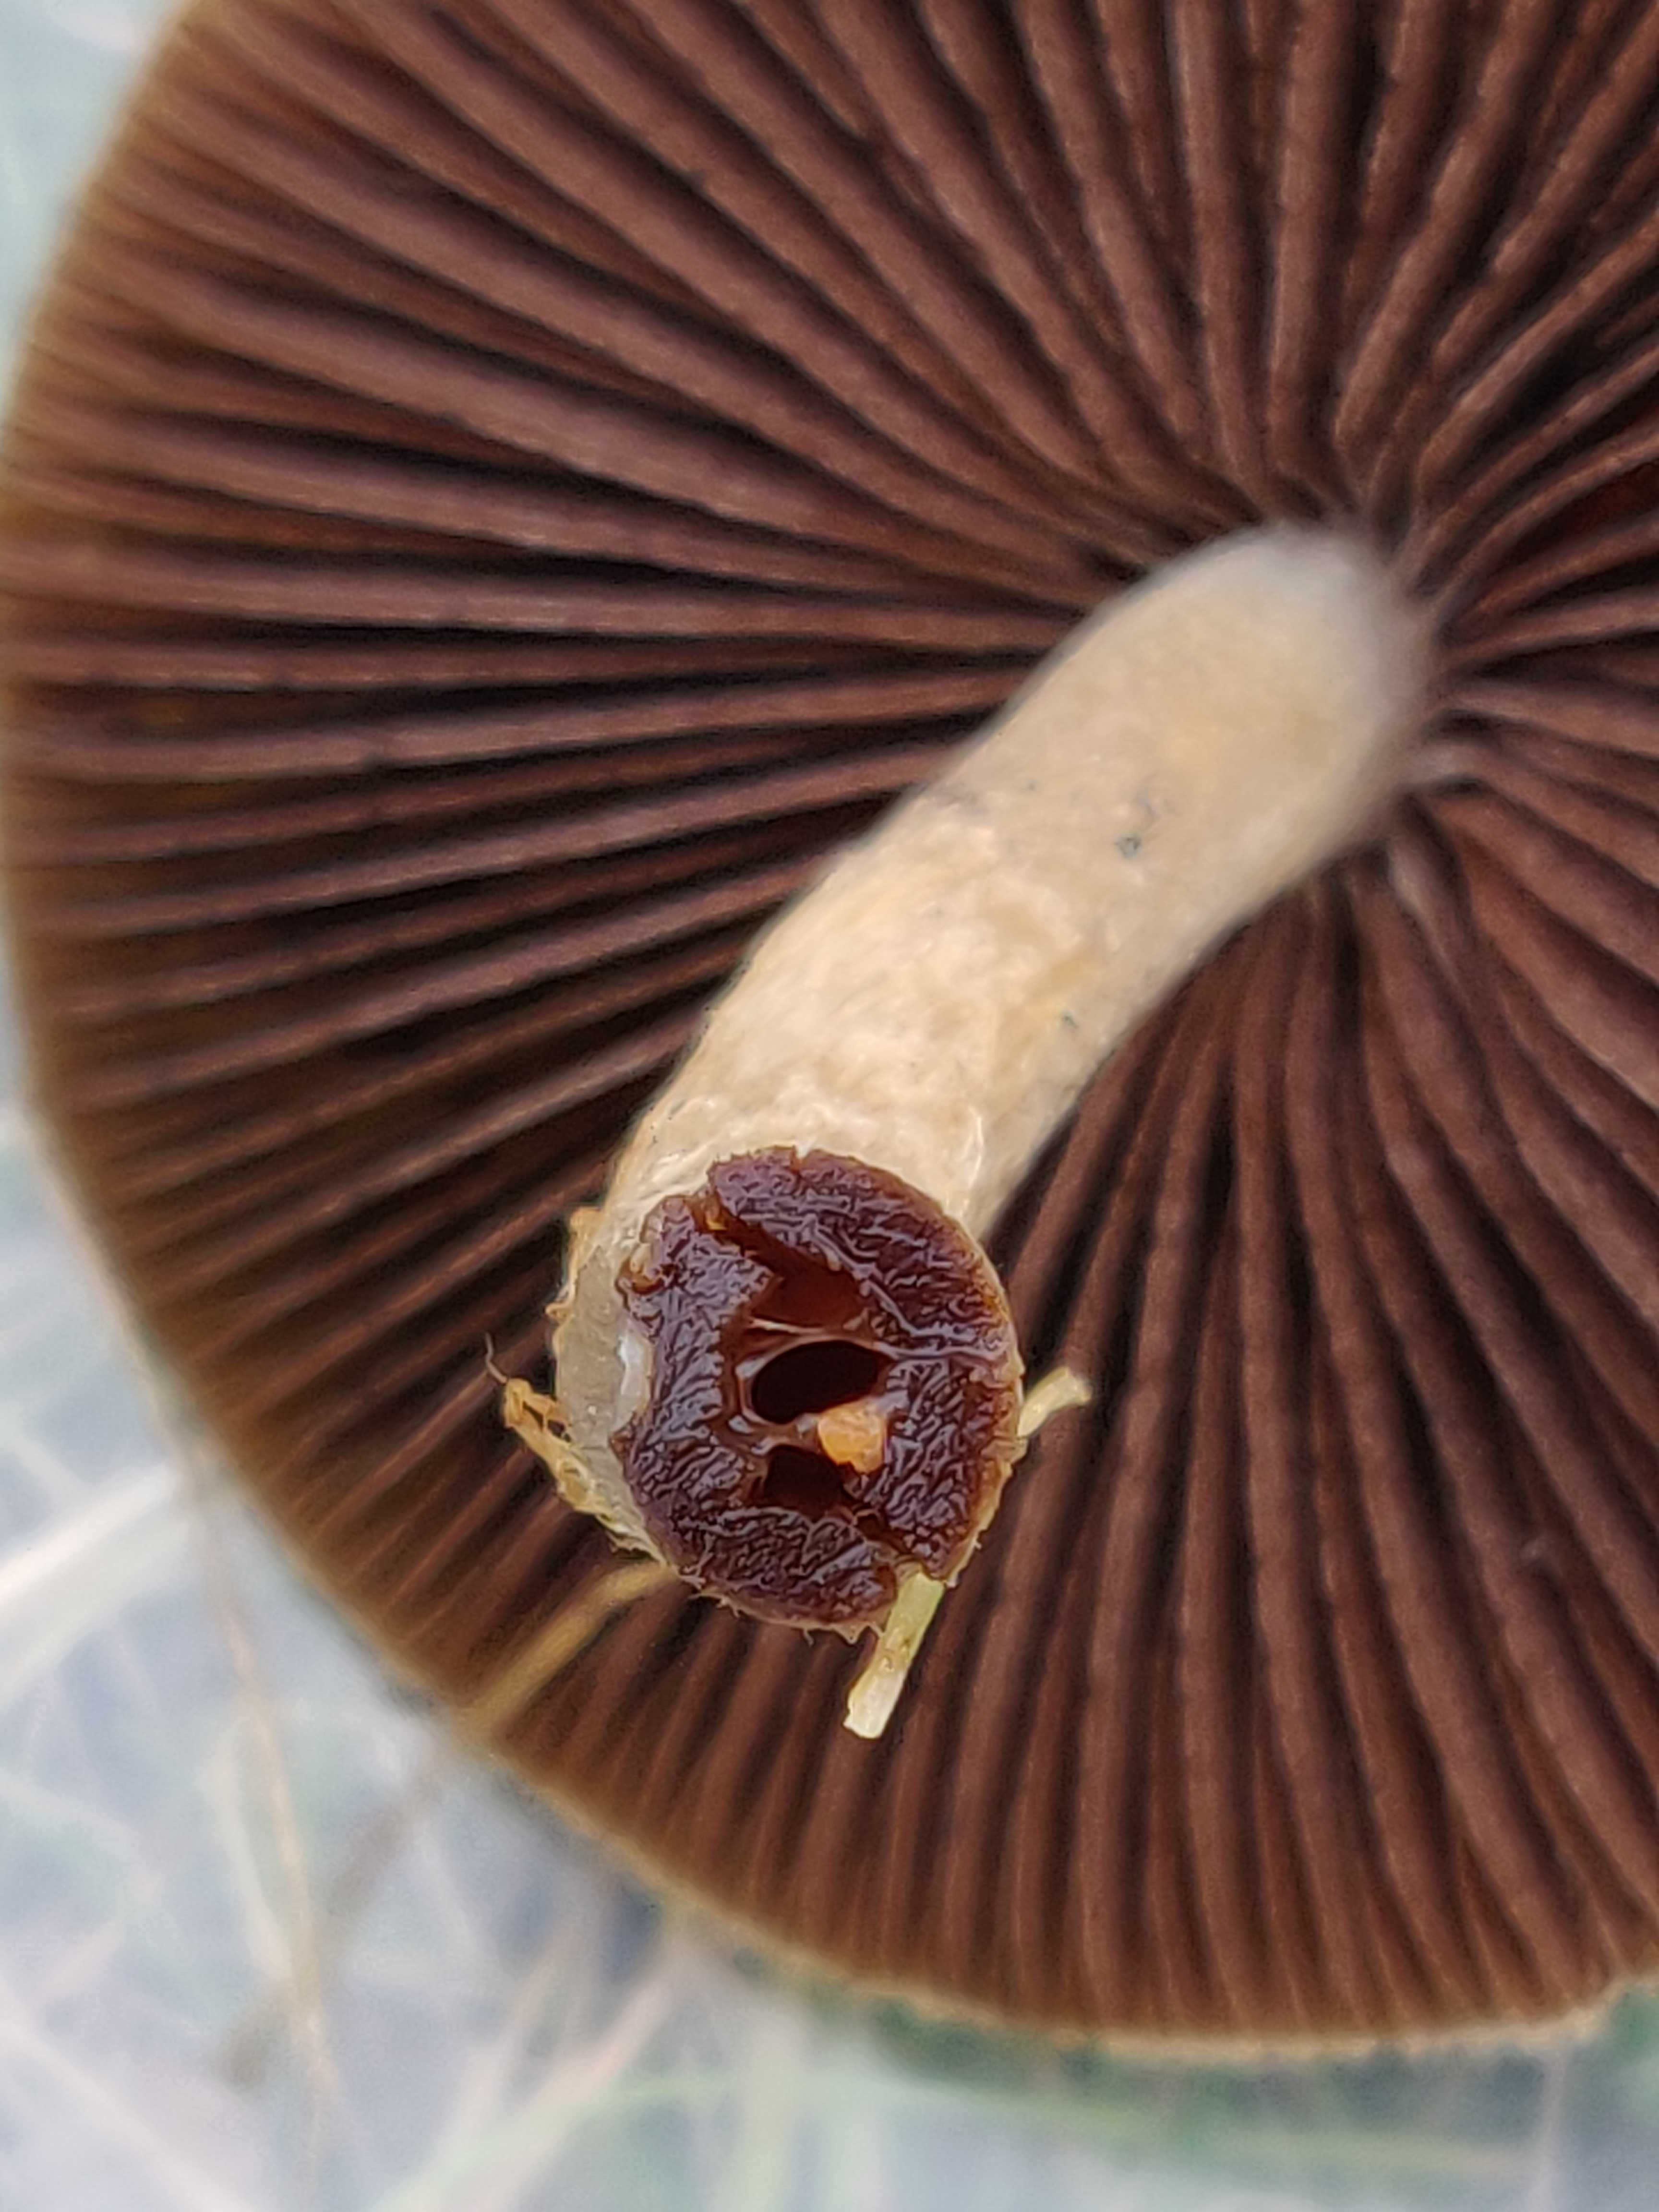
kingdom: Fungi
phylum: Basidiomycota
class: Agaricomycetes
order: Agaricales
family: Psathyrellaceae
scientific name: Psathyrellaceae
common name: mørkhatfamilien
